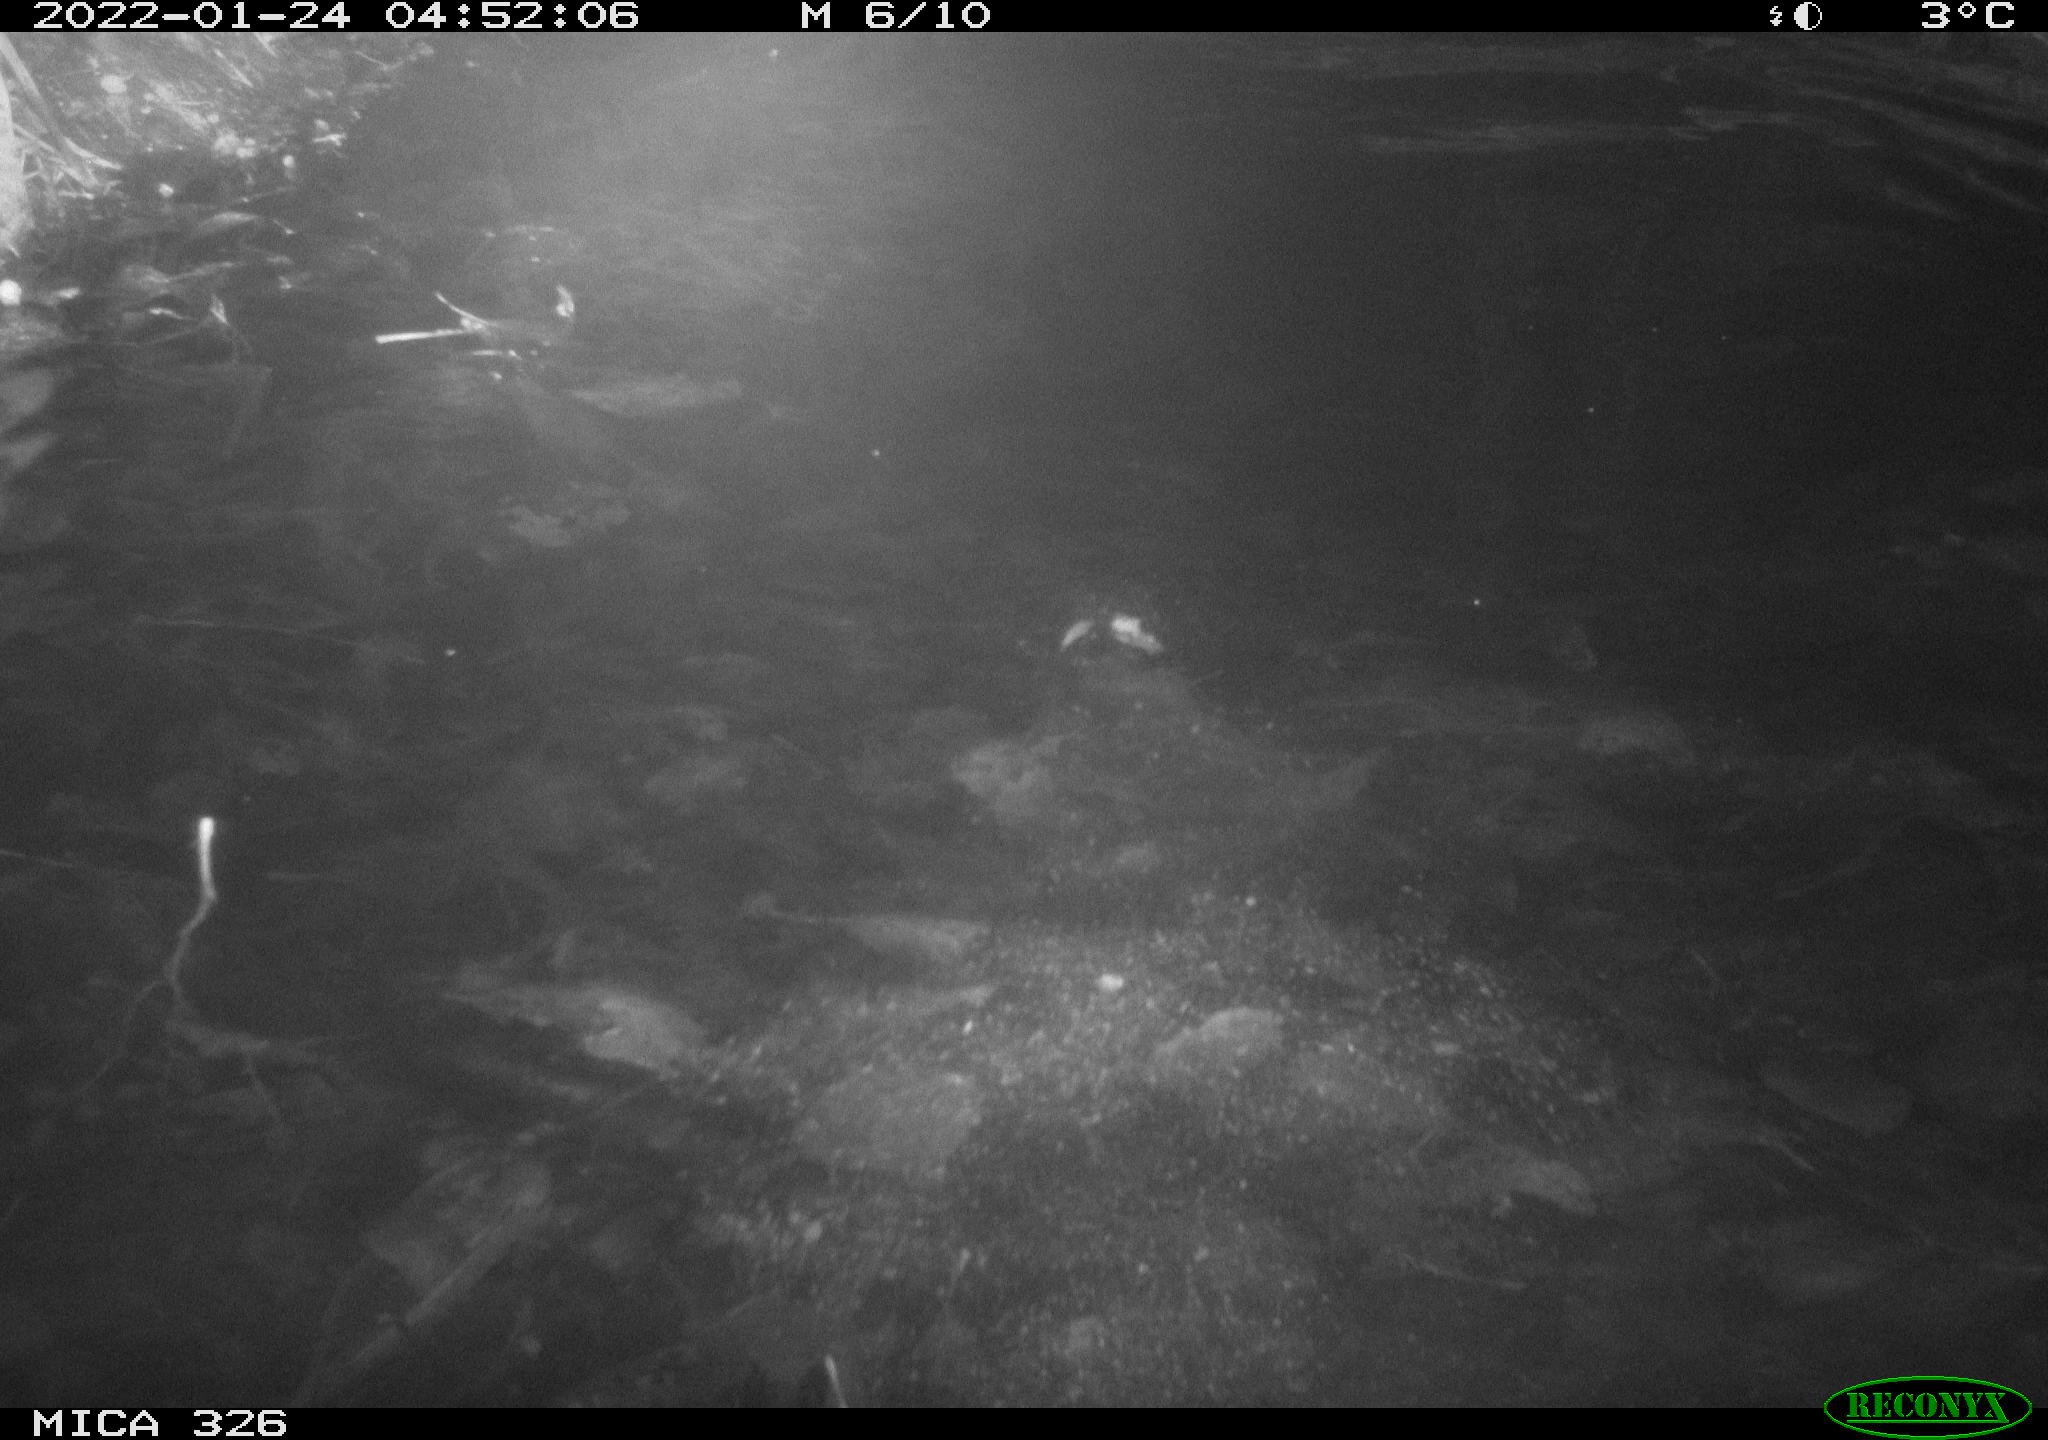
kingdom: Animalia
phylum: Chordata
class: Mammalia
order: Rodentia
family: Cricetidae
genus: Ondatra
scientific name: Ondatra zibethicus
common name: Muskrat
